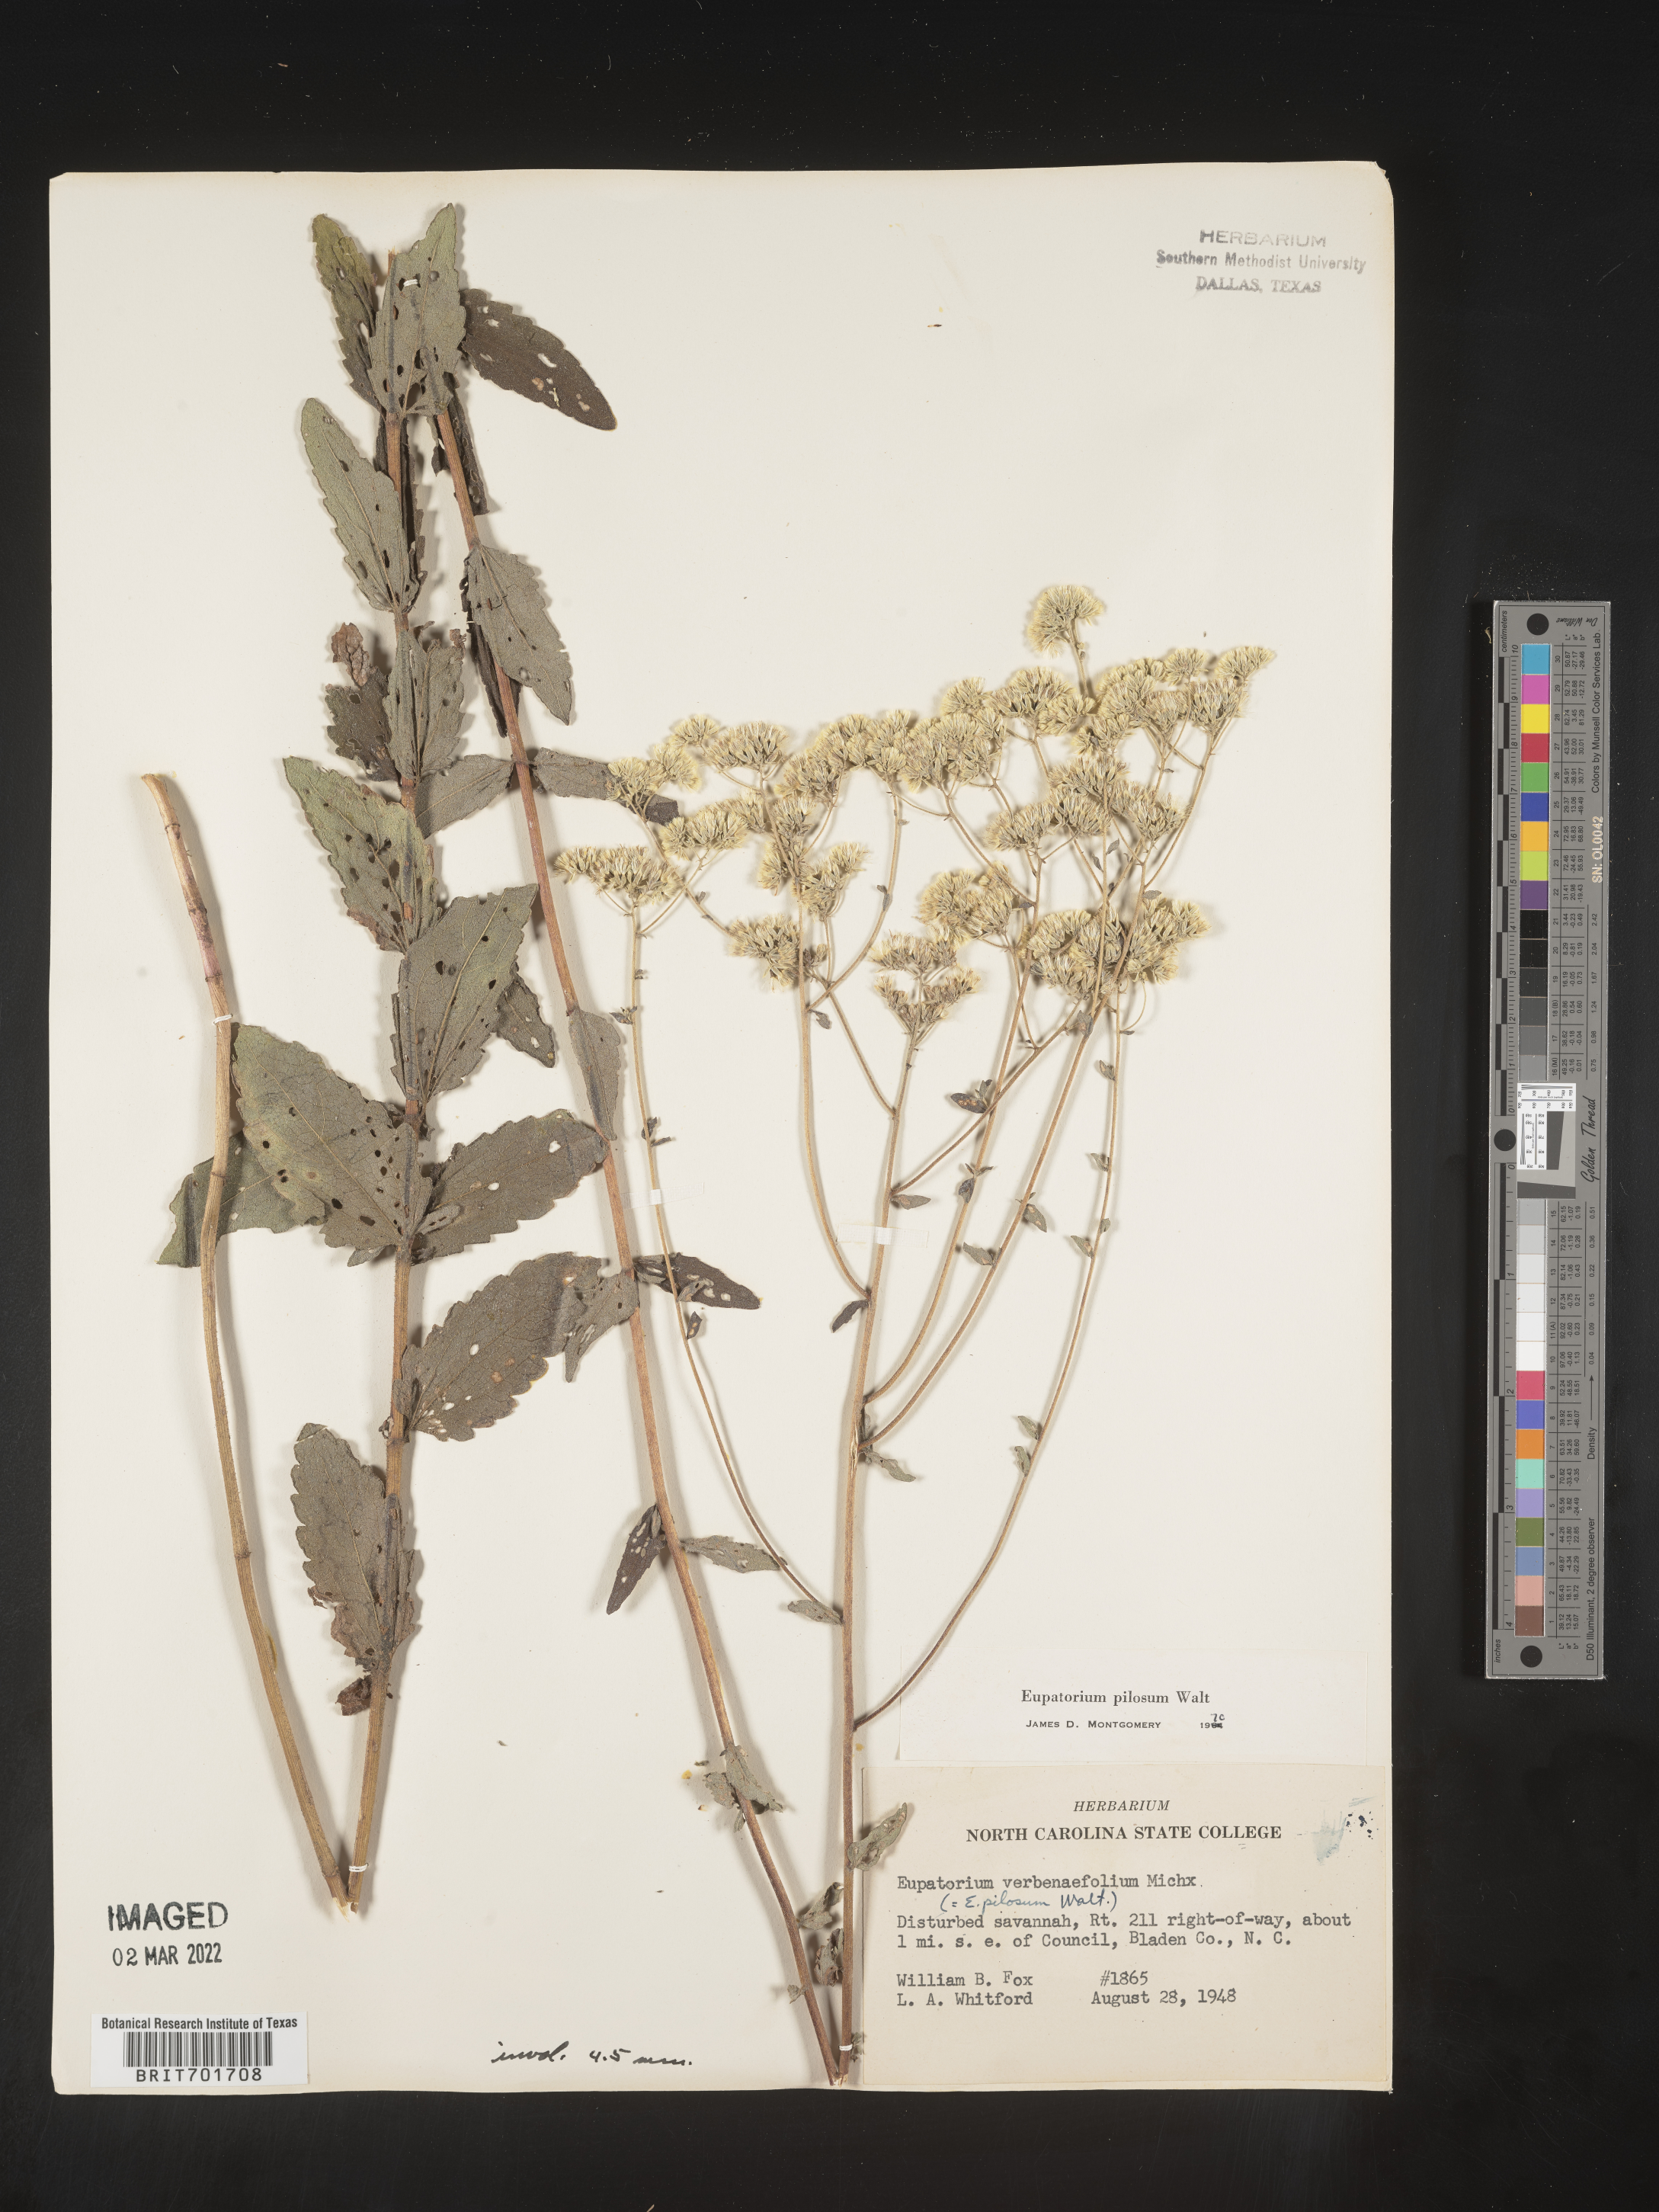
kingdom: Plantae
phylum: Tracheophyta
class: Magnoliopsida
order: Asterales
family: Asteraceae
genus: Eupatorium
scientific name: Eupatorium pilosum
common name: Rough boneset
